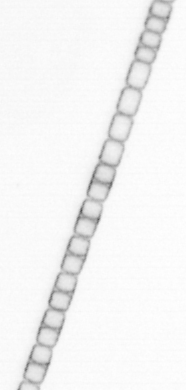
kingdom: Chromista
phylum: Ochrophyta
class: Bacillariophyceae
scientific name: Bacillariophyceae
